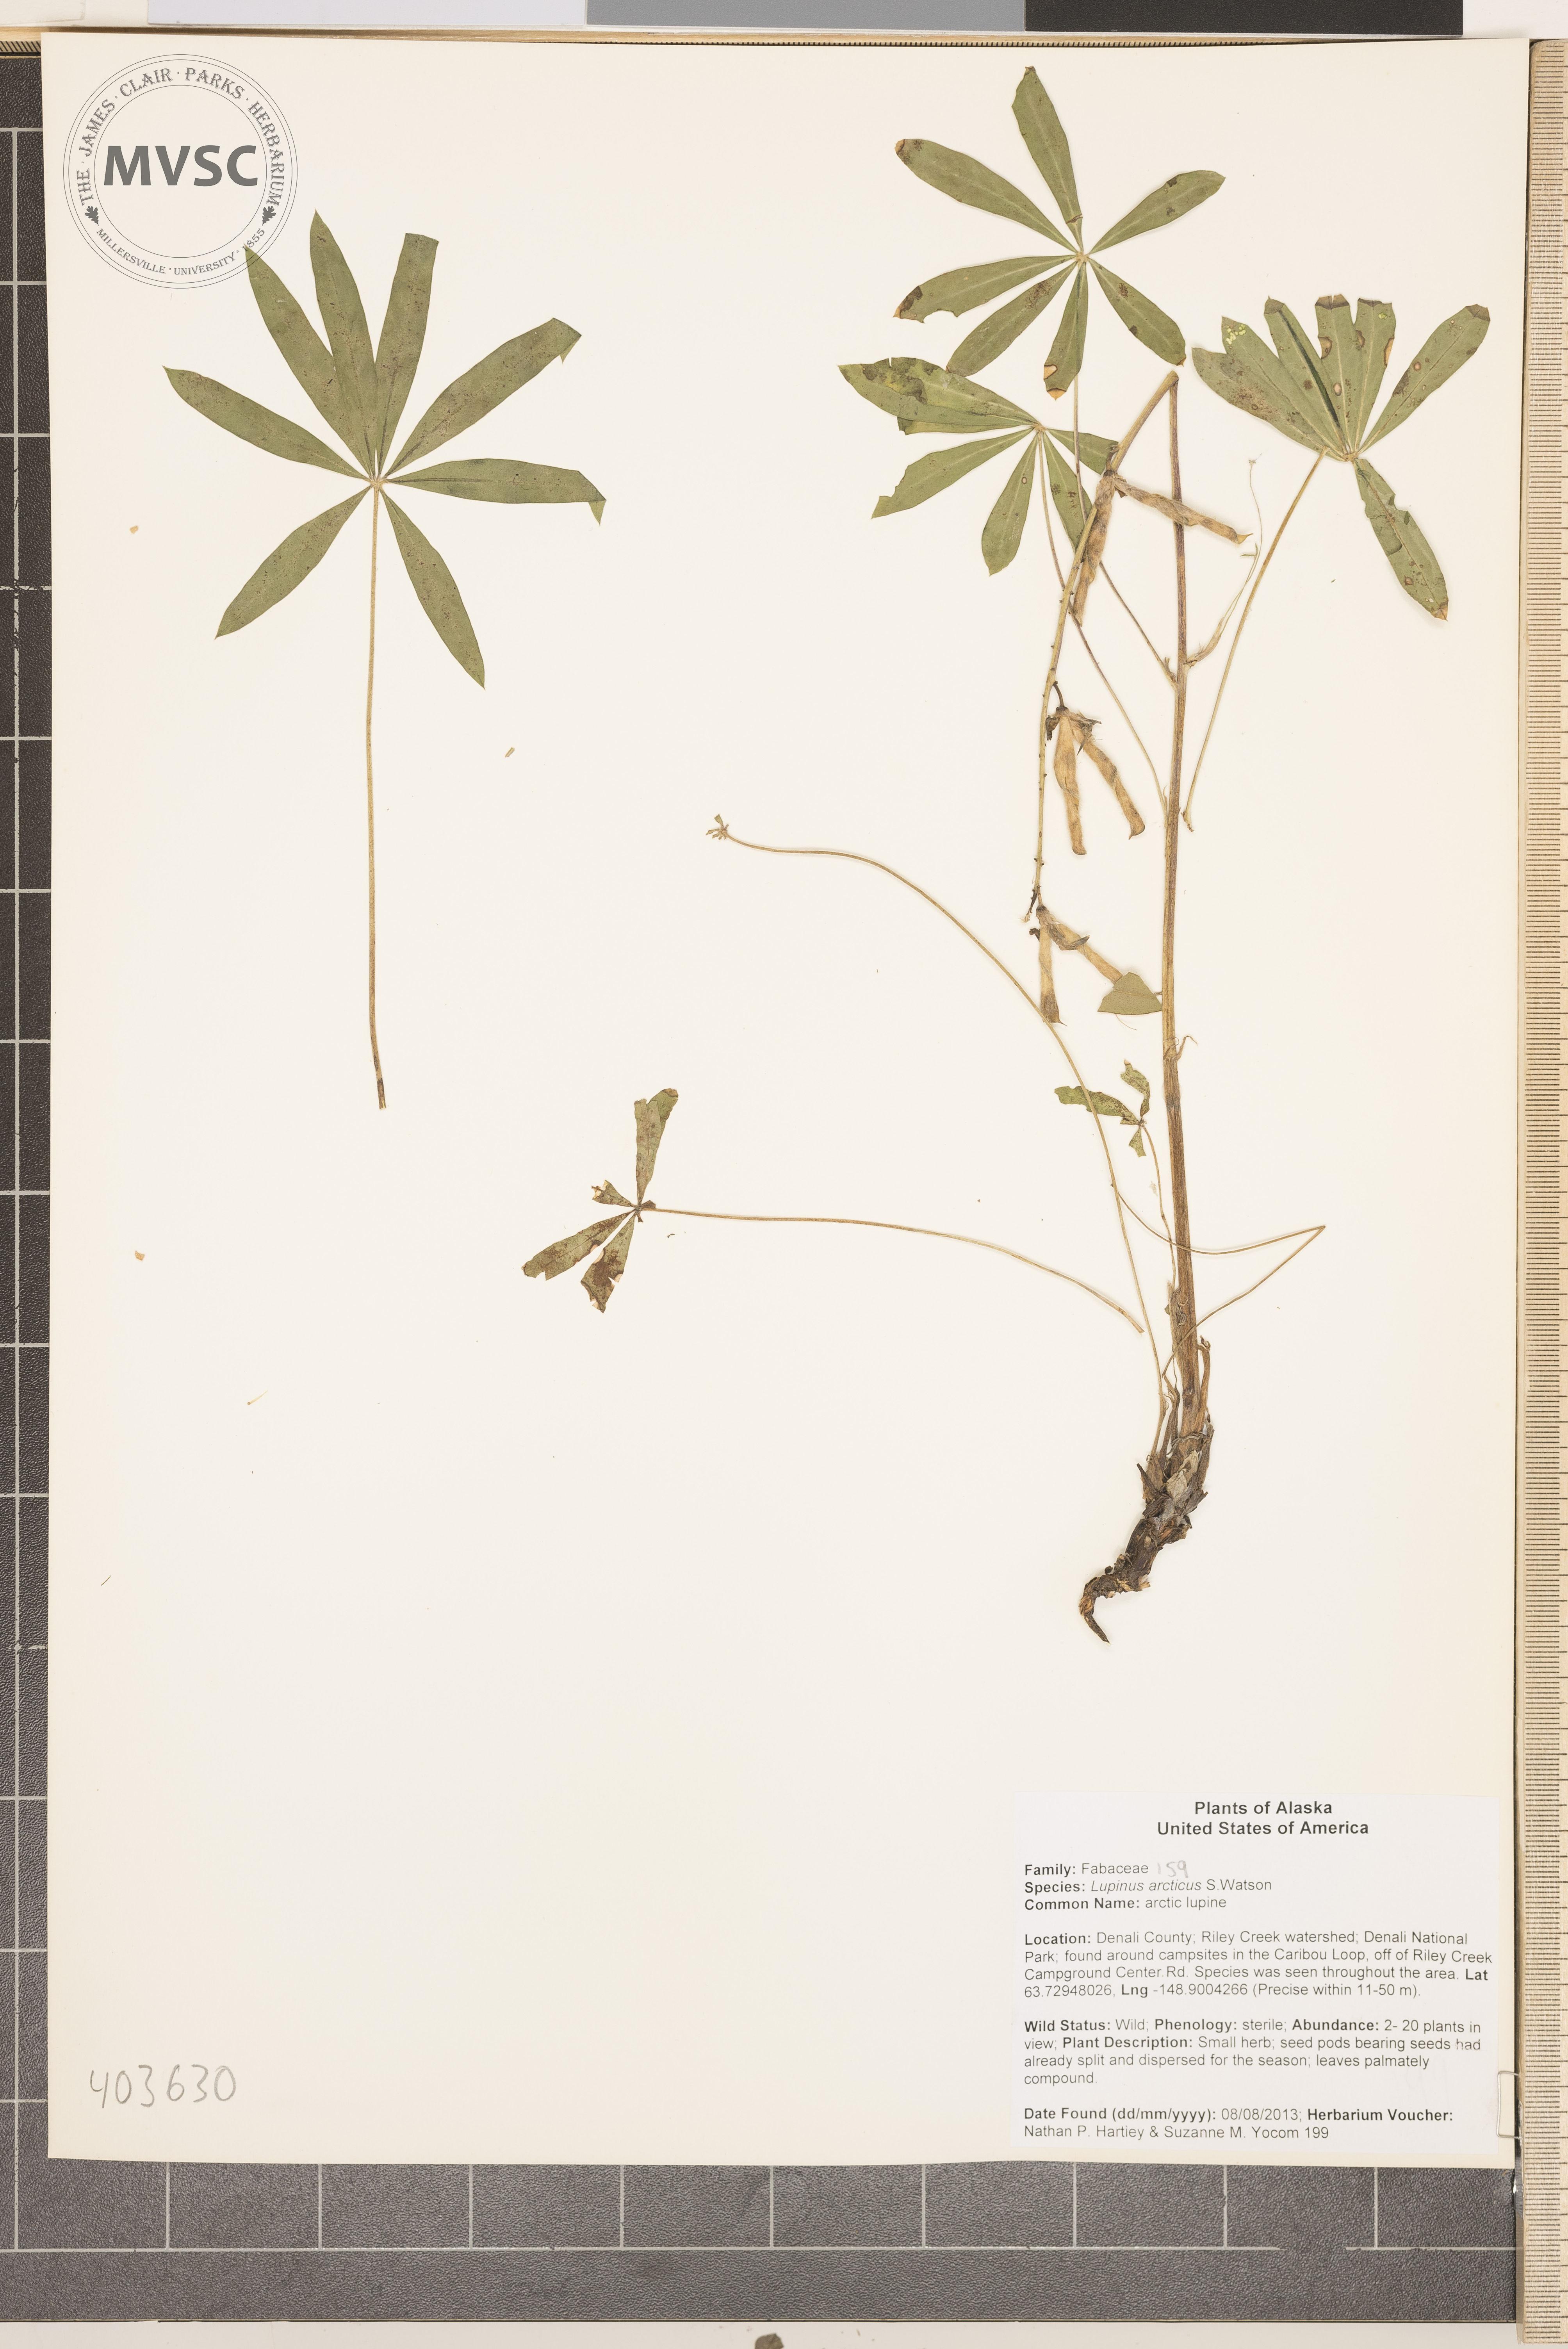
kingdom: Plantae
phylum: Tracheophyta
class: Magnoliopsida
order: Fabales
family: Fabaceae
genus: Lupinus
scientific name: Lupinus arcticus
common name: arctic lupine
